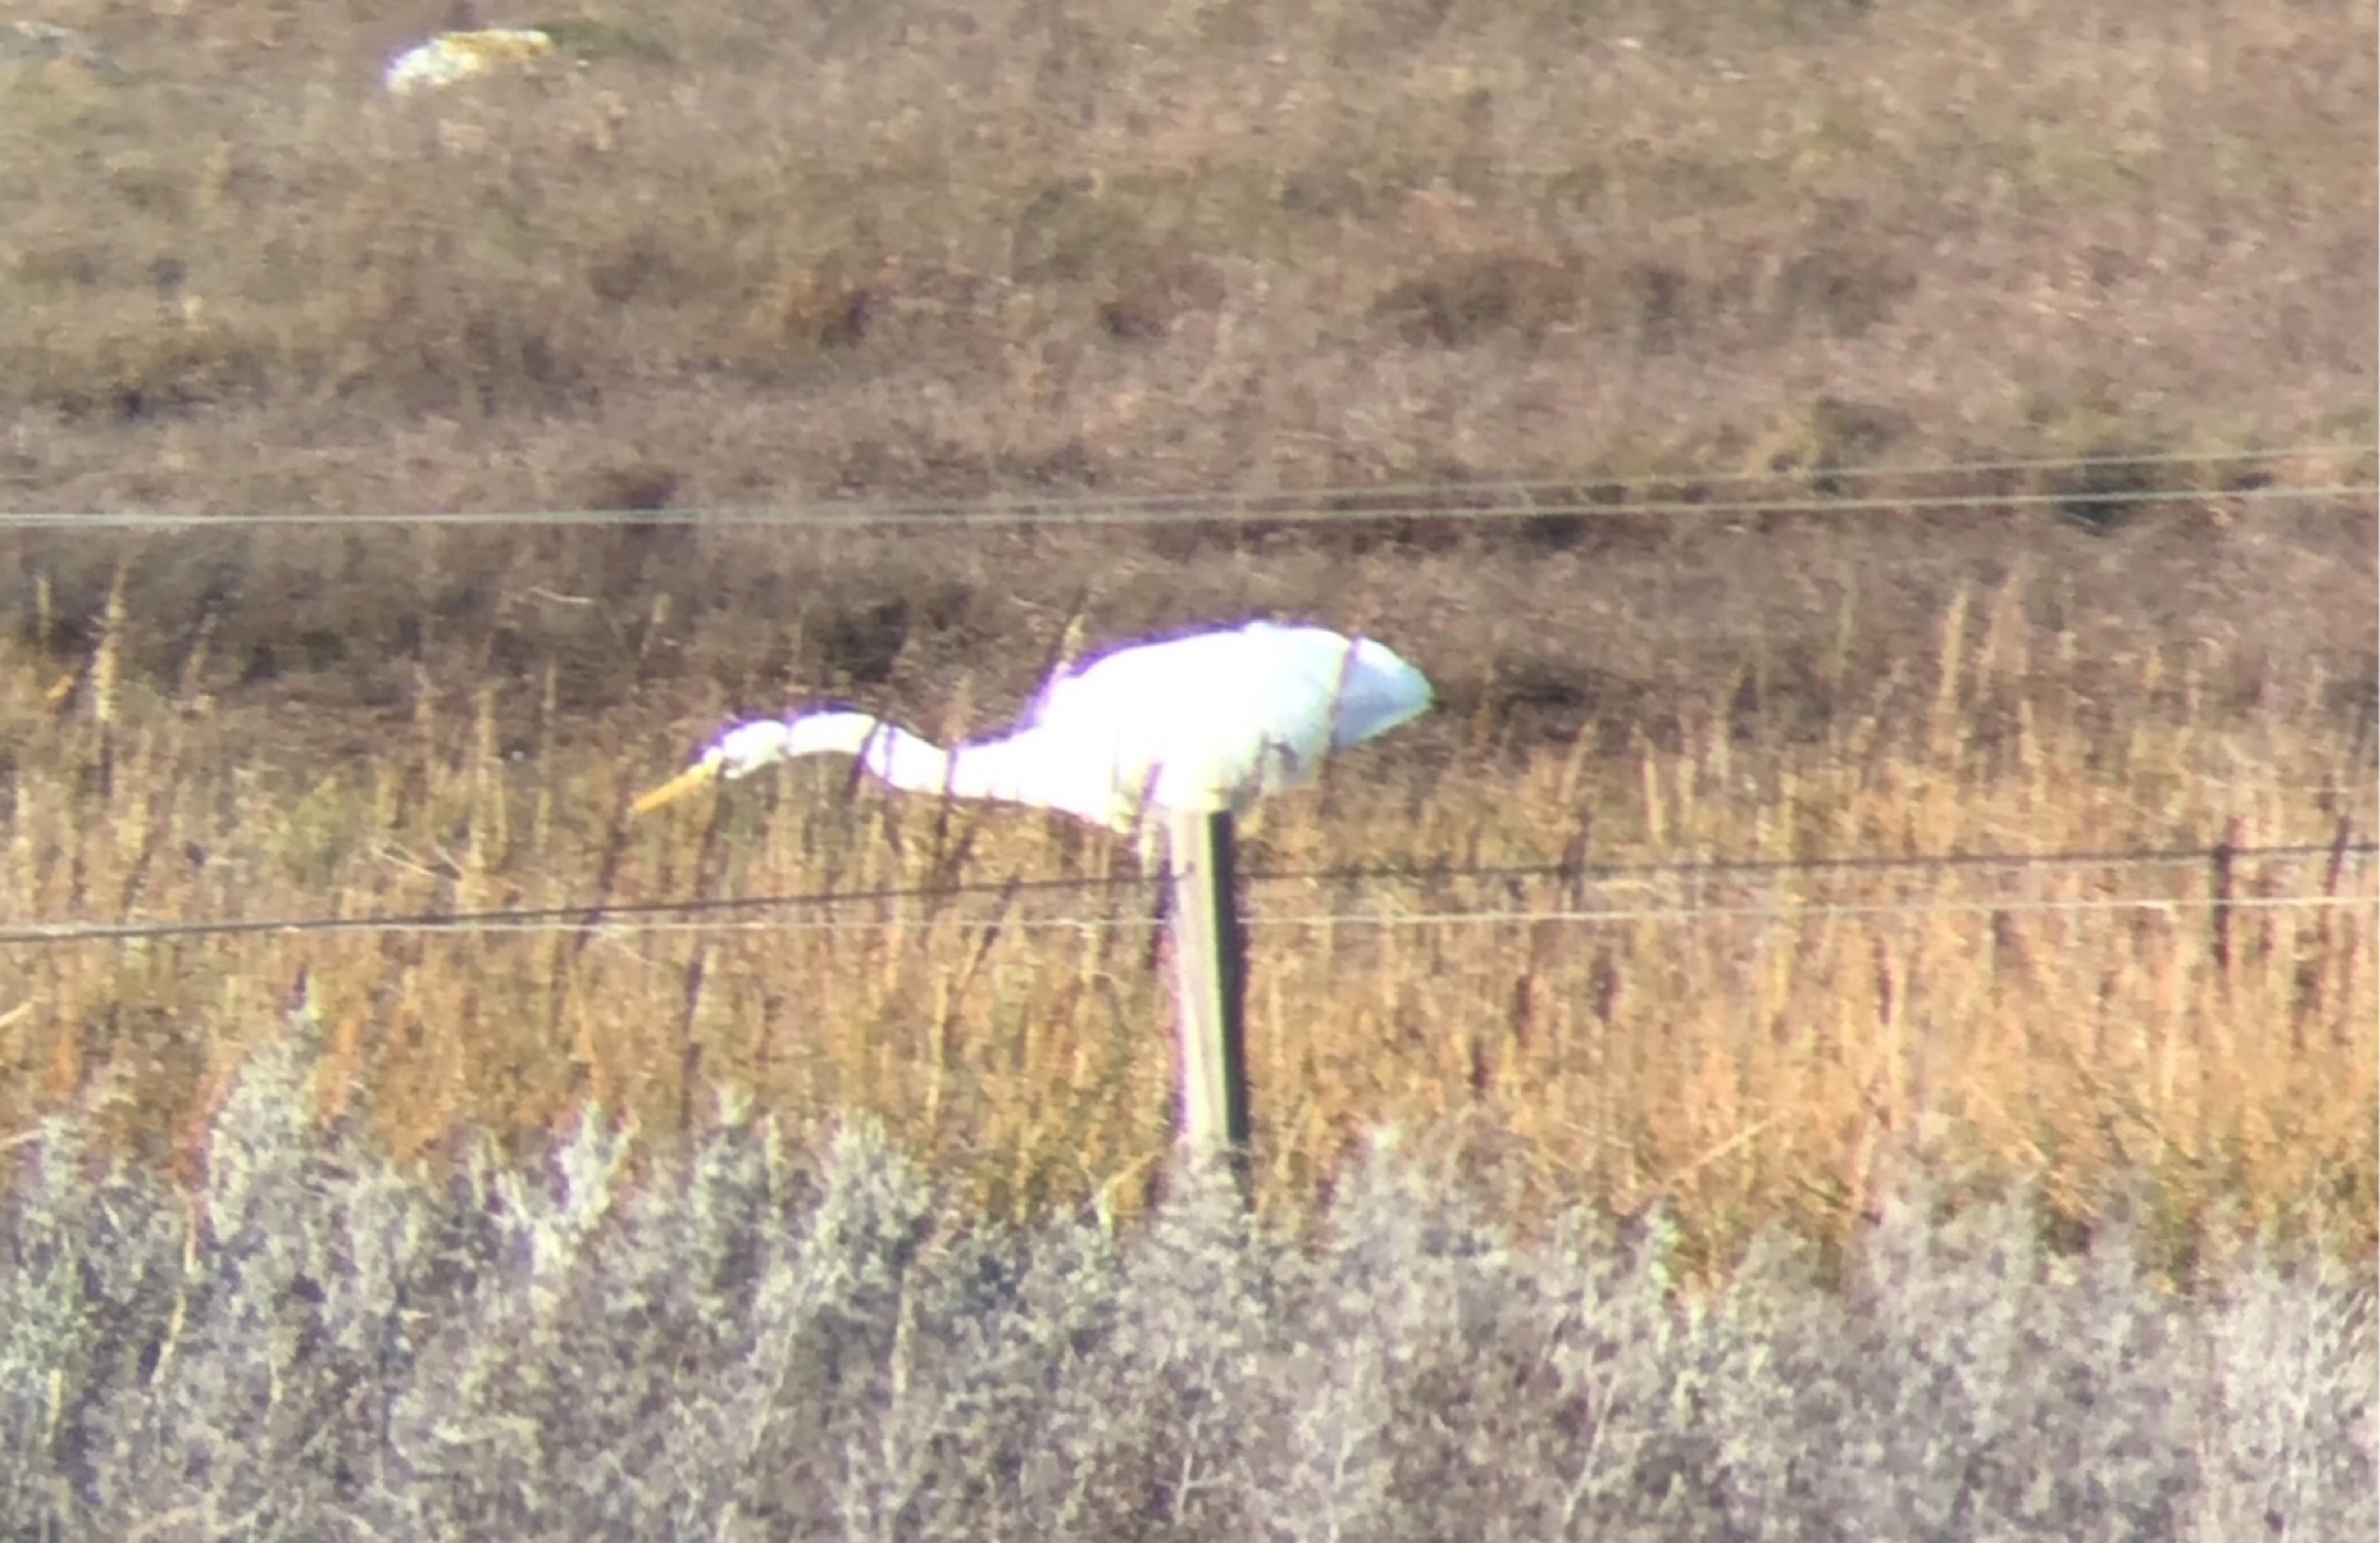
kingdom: Animalia
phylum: Chordata
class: Aves
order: Pelecaniformes
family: Ardeidae
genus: Ardea
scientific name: Ardea alba
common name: Sølvhejre
